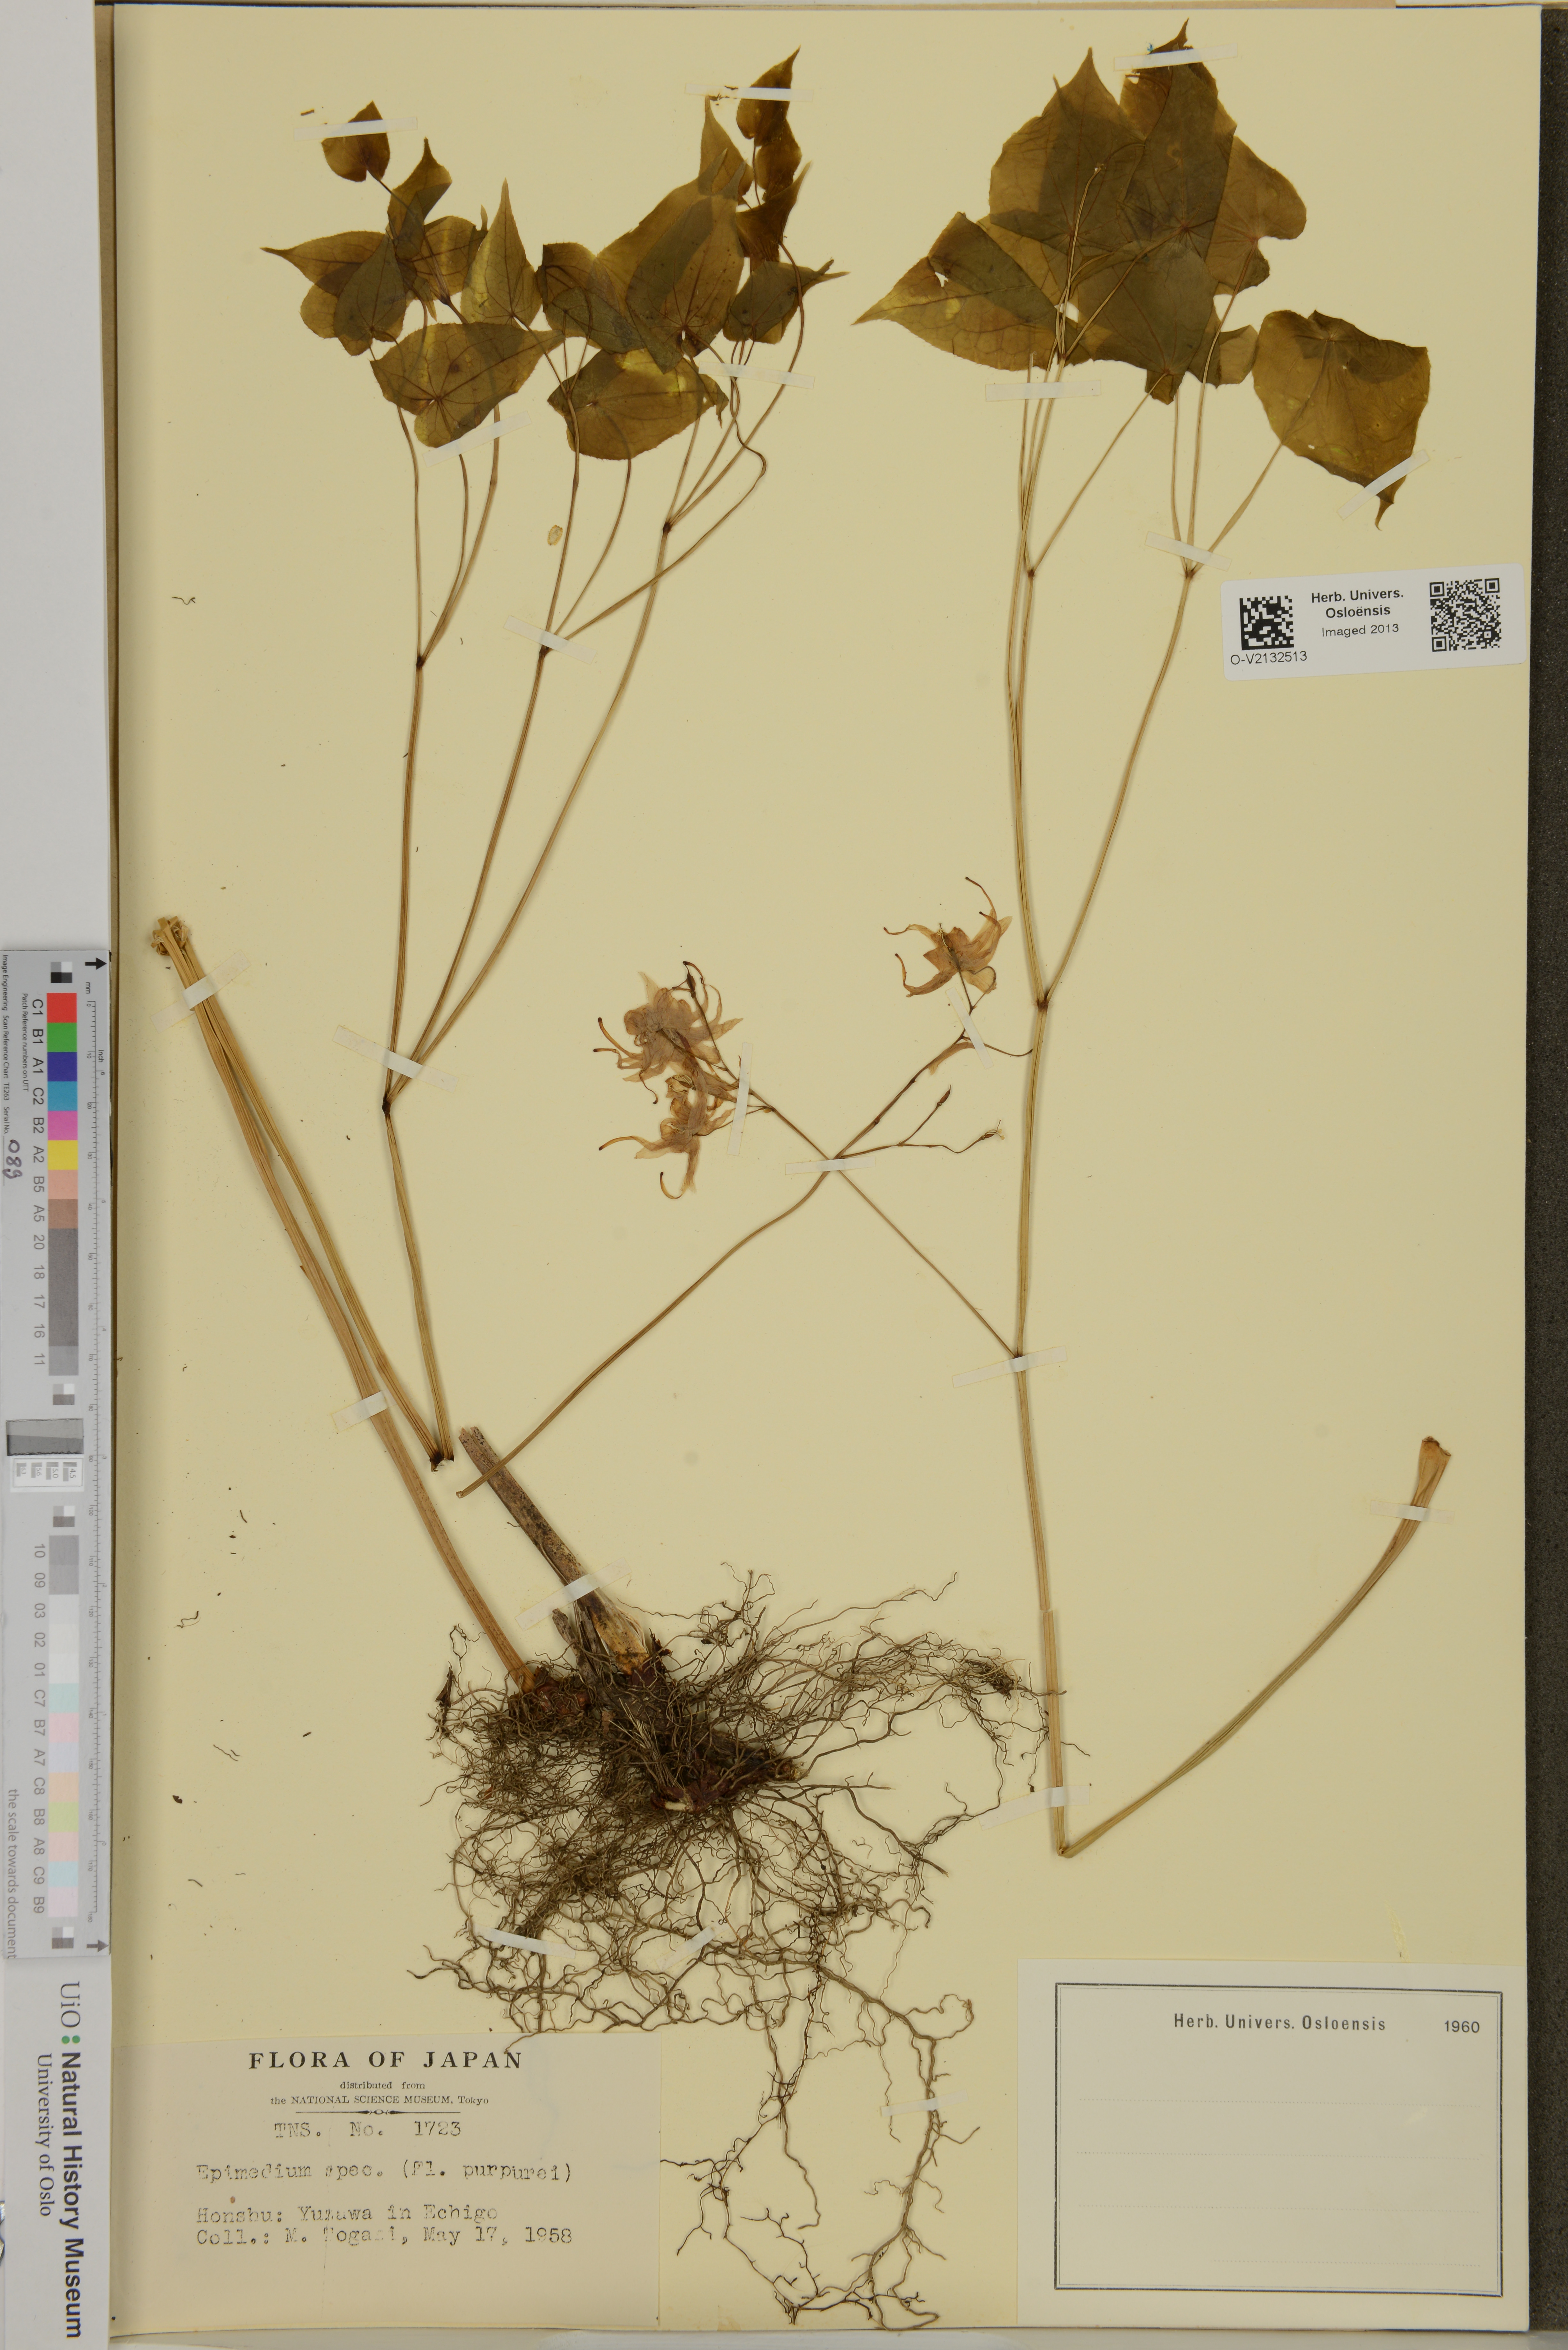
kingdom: Plantae
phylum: Tracheophyta
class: Magnoliopsida
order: Ranunculales
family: Berberidaceae
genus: Epimedium
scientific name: Epimedium
